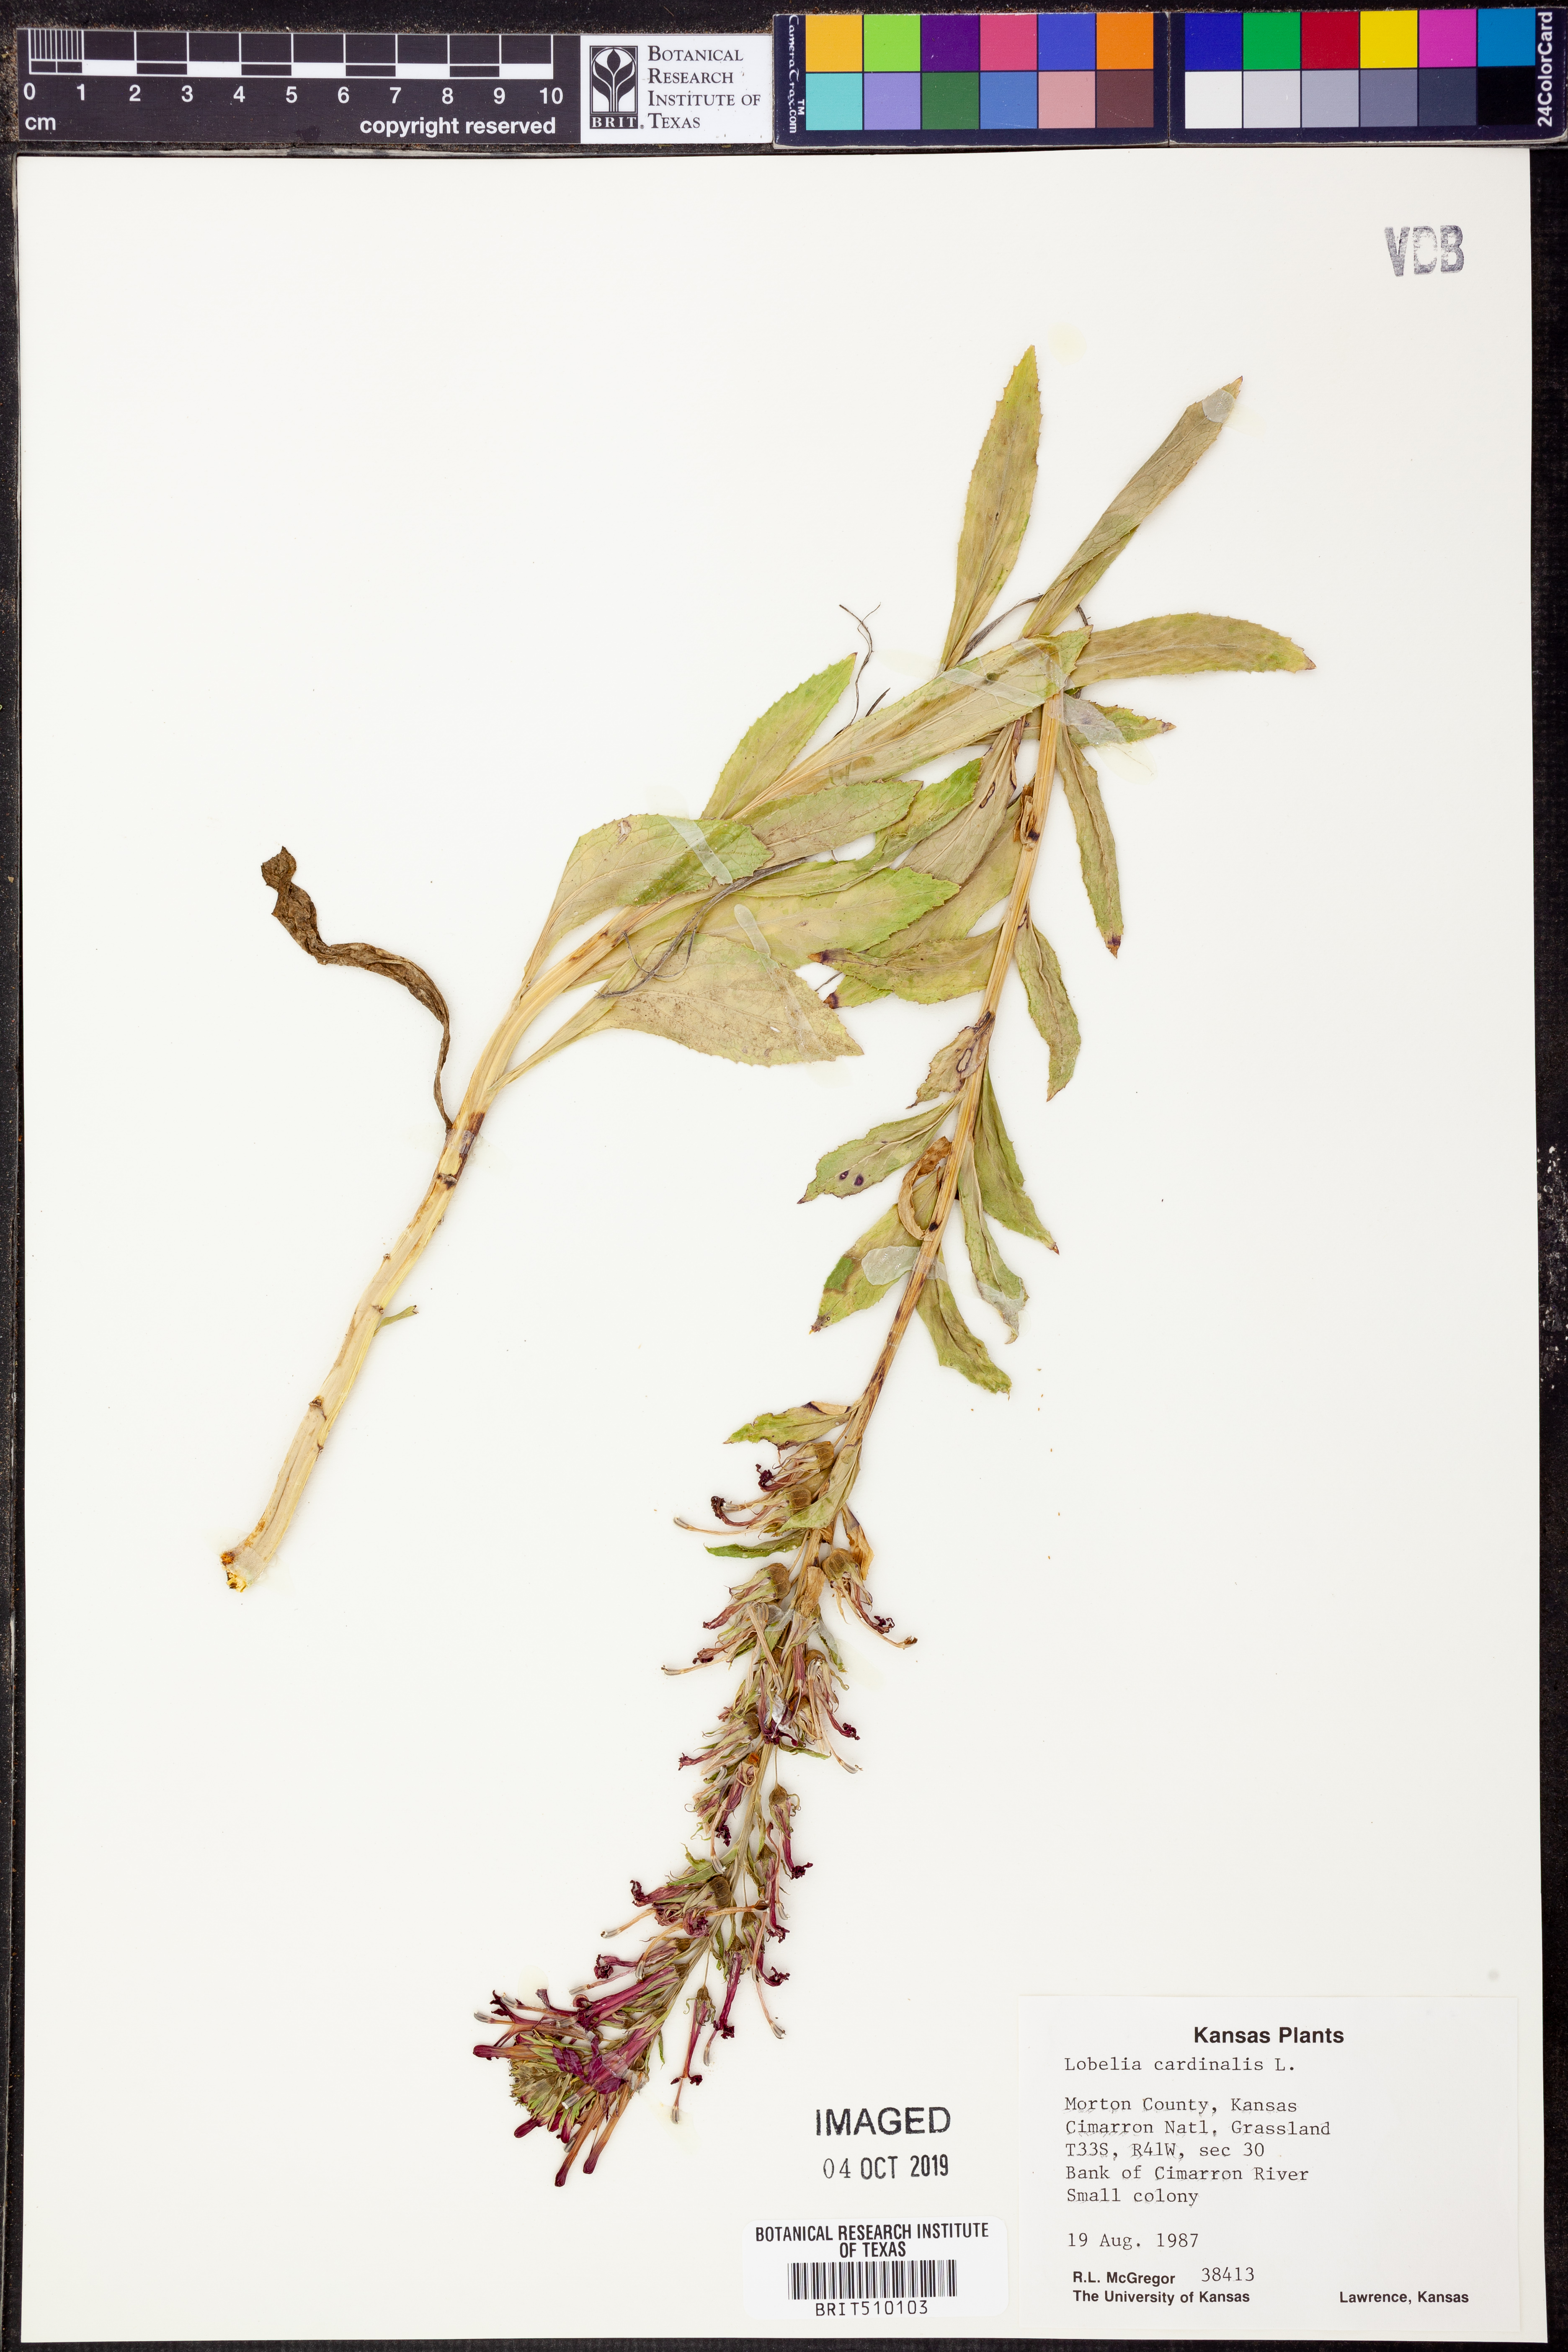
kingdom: Plantae
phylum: Tracheophyta
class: Magnoliopsida
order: Asterales
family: Campanulaceae
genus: Lobelia
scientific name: Lobelia cardinalis
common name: Cardinal flower
